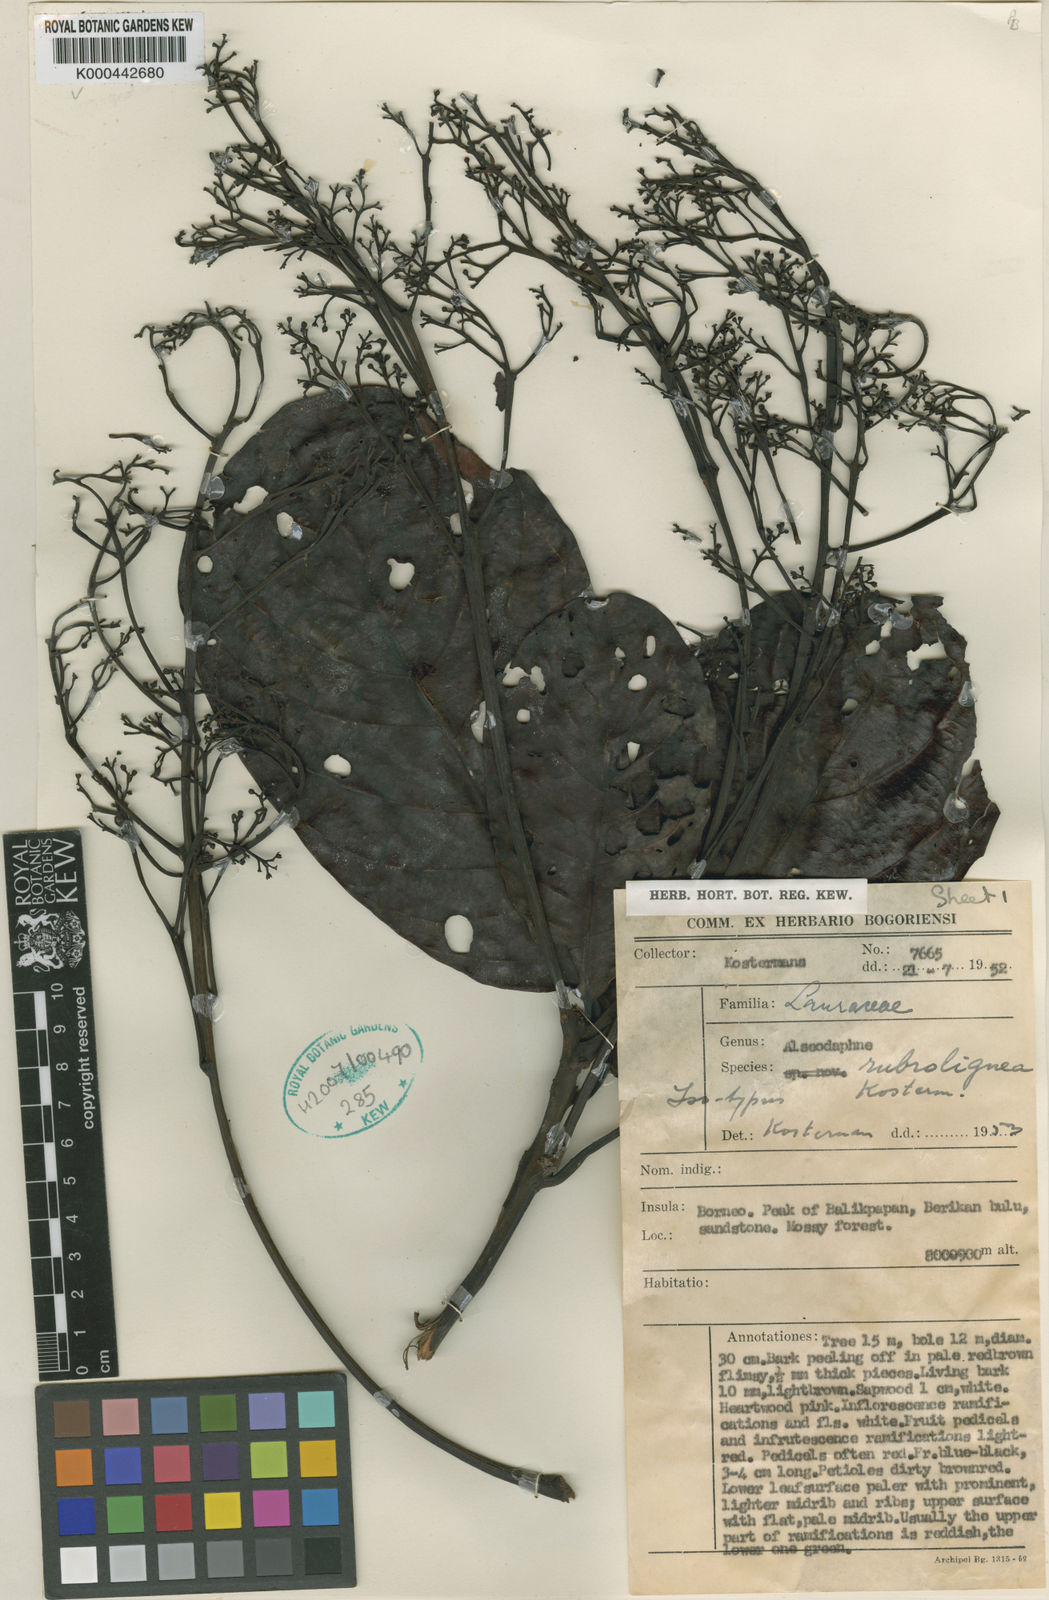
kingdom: Plantae
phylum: Tracheophyta
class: Magnoliopsida
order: Laurales
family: Lauraceae
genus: Alseodaphne
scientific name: Alseodaphne rubrolignea
